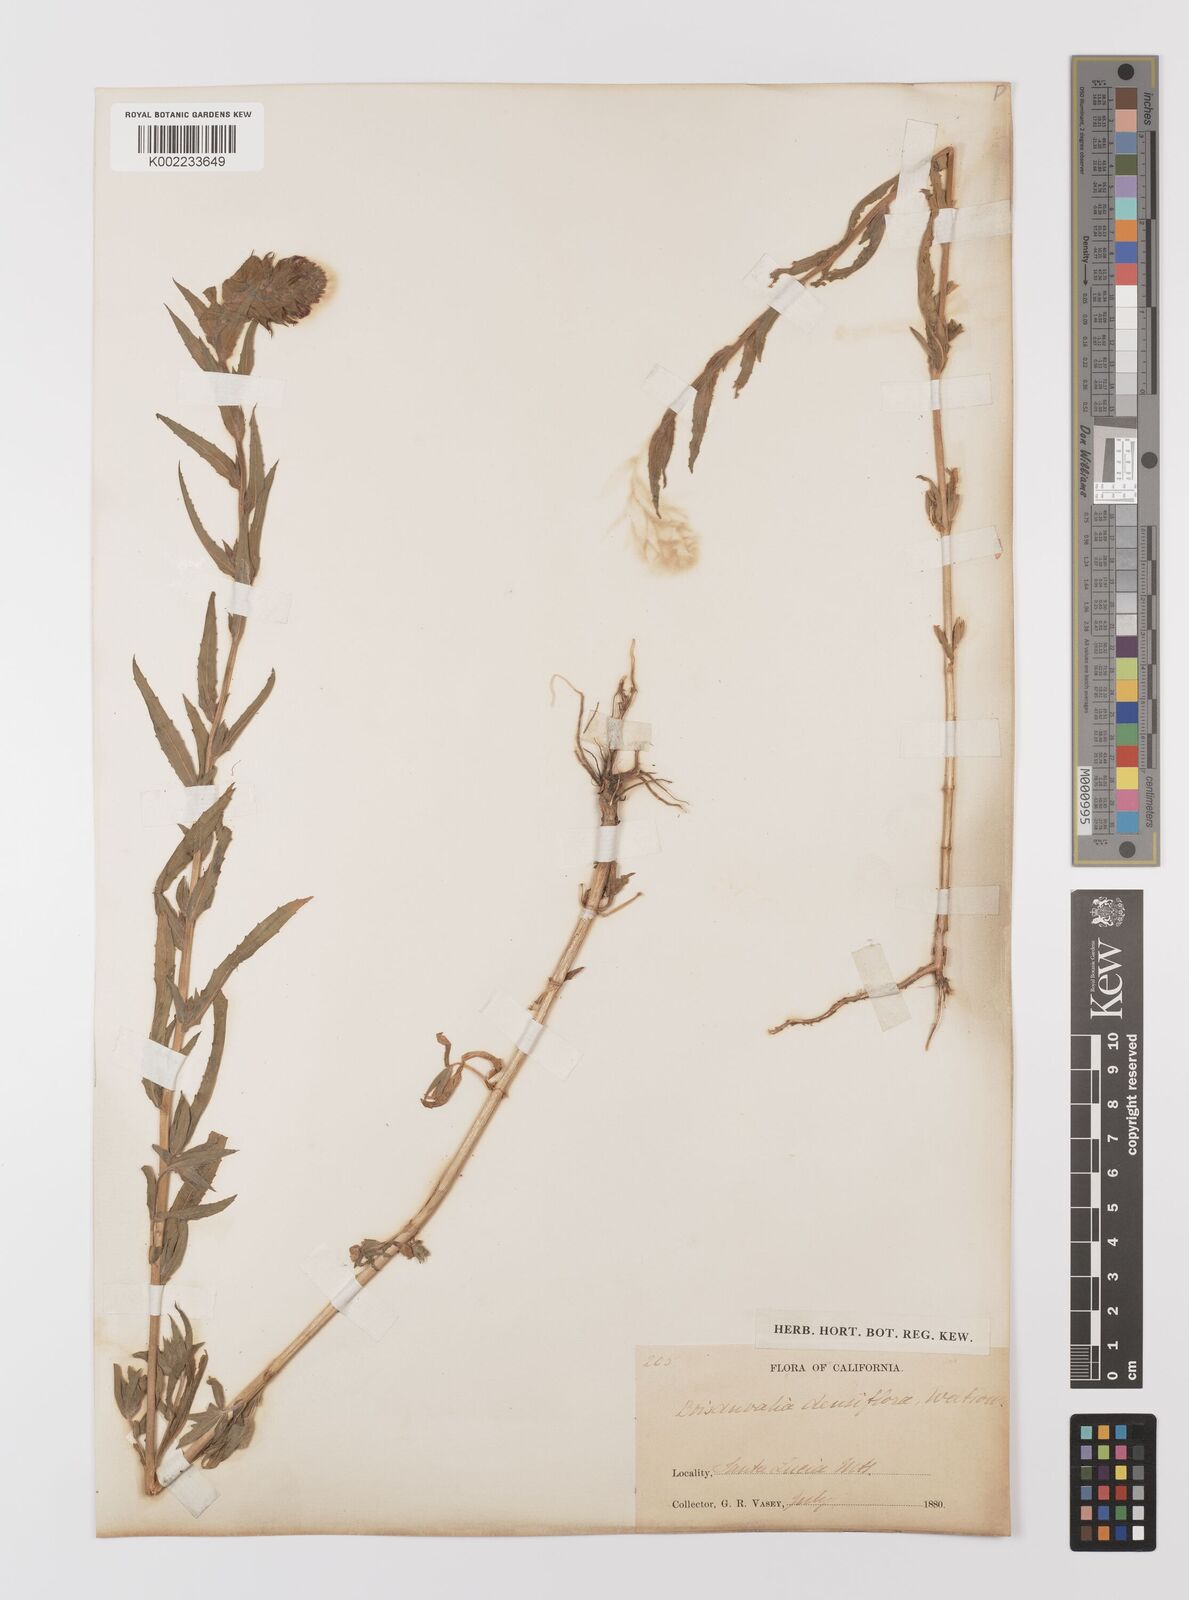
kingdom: Plantae
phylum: Tracheophyta
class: Magnoliopsida
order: Myrtales
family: Onagraceae
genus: Epilobium
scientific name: Epilobium densiflorum
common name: Dense spike-primrose
